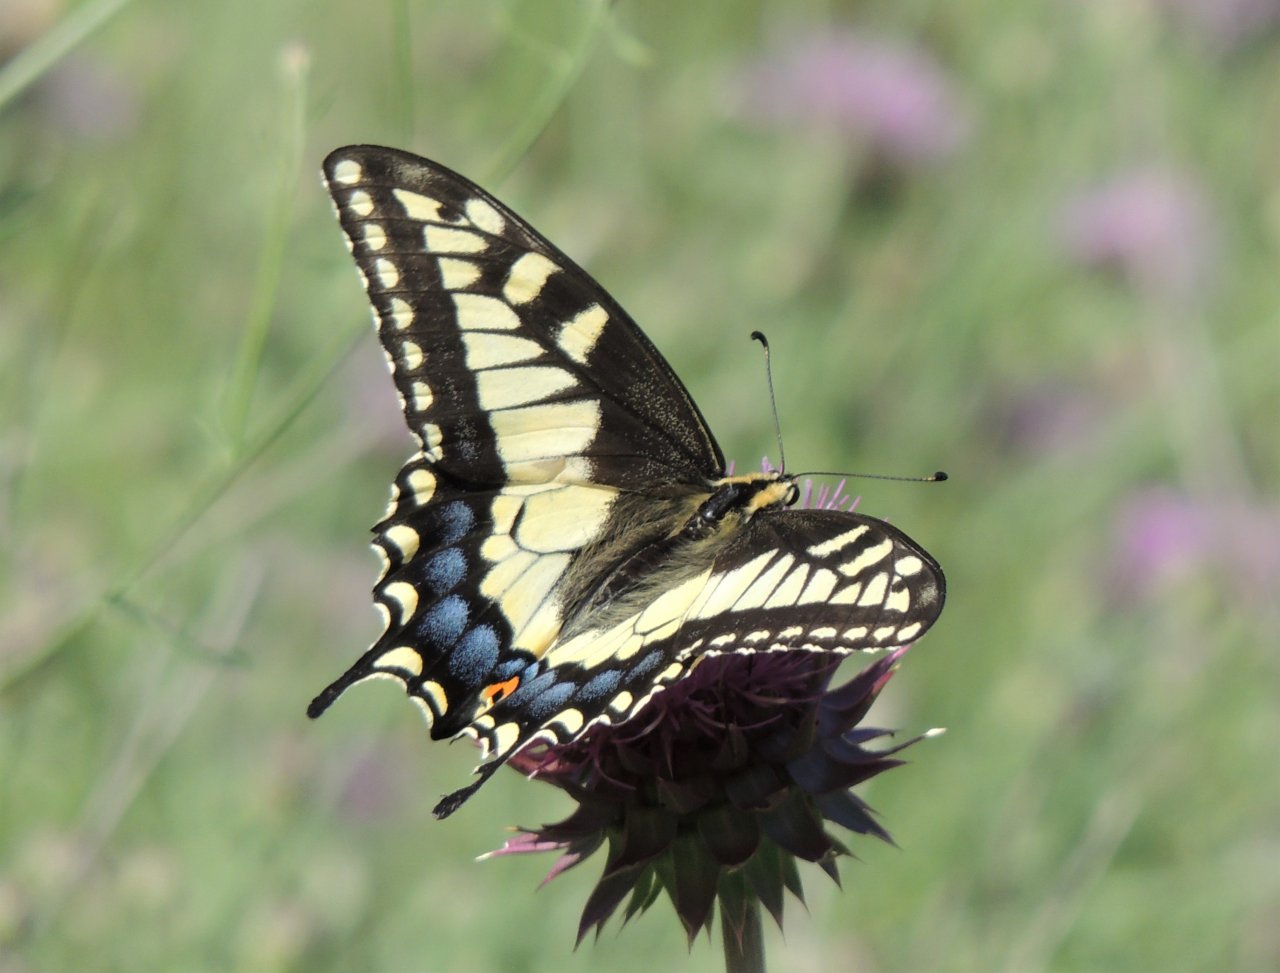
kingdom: Animalia
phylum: Arthropoda
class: Insecta
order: Lepidoptera
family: Papilionidae
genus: Papilio
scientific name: Papilio machaon
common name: Old World Swallowtail
